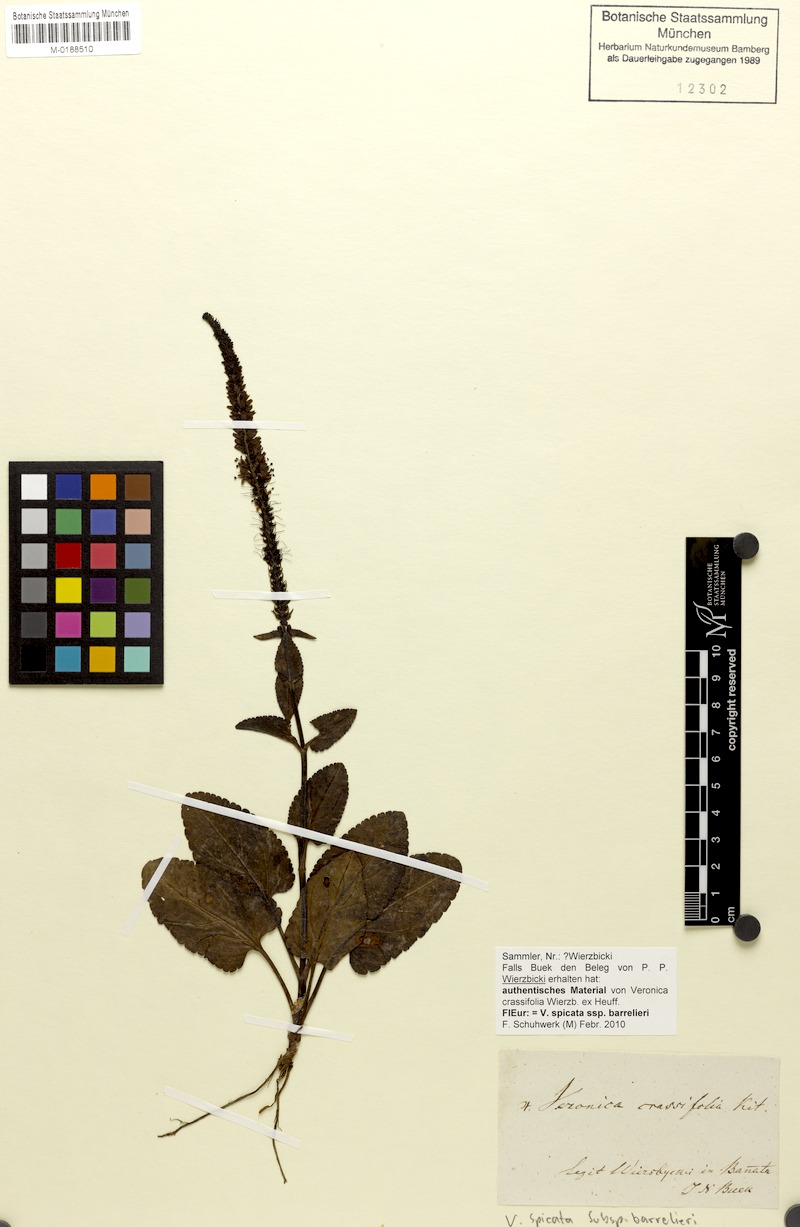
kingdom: Plantae
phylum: Tracheophyta
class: Magnoliopsida
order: Lamiales
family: Plantaginaceae
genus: Veronica
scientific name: Veronica barrelieri
